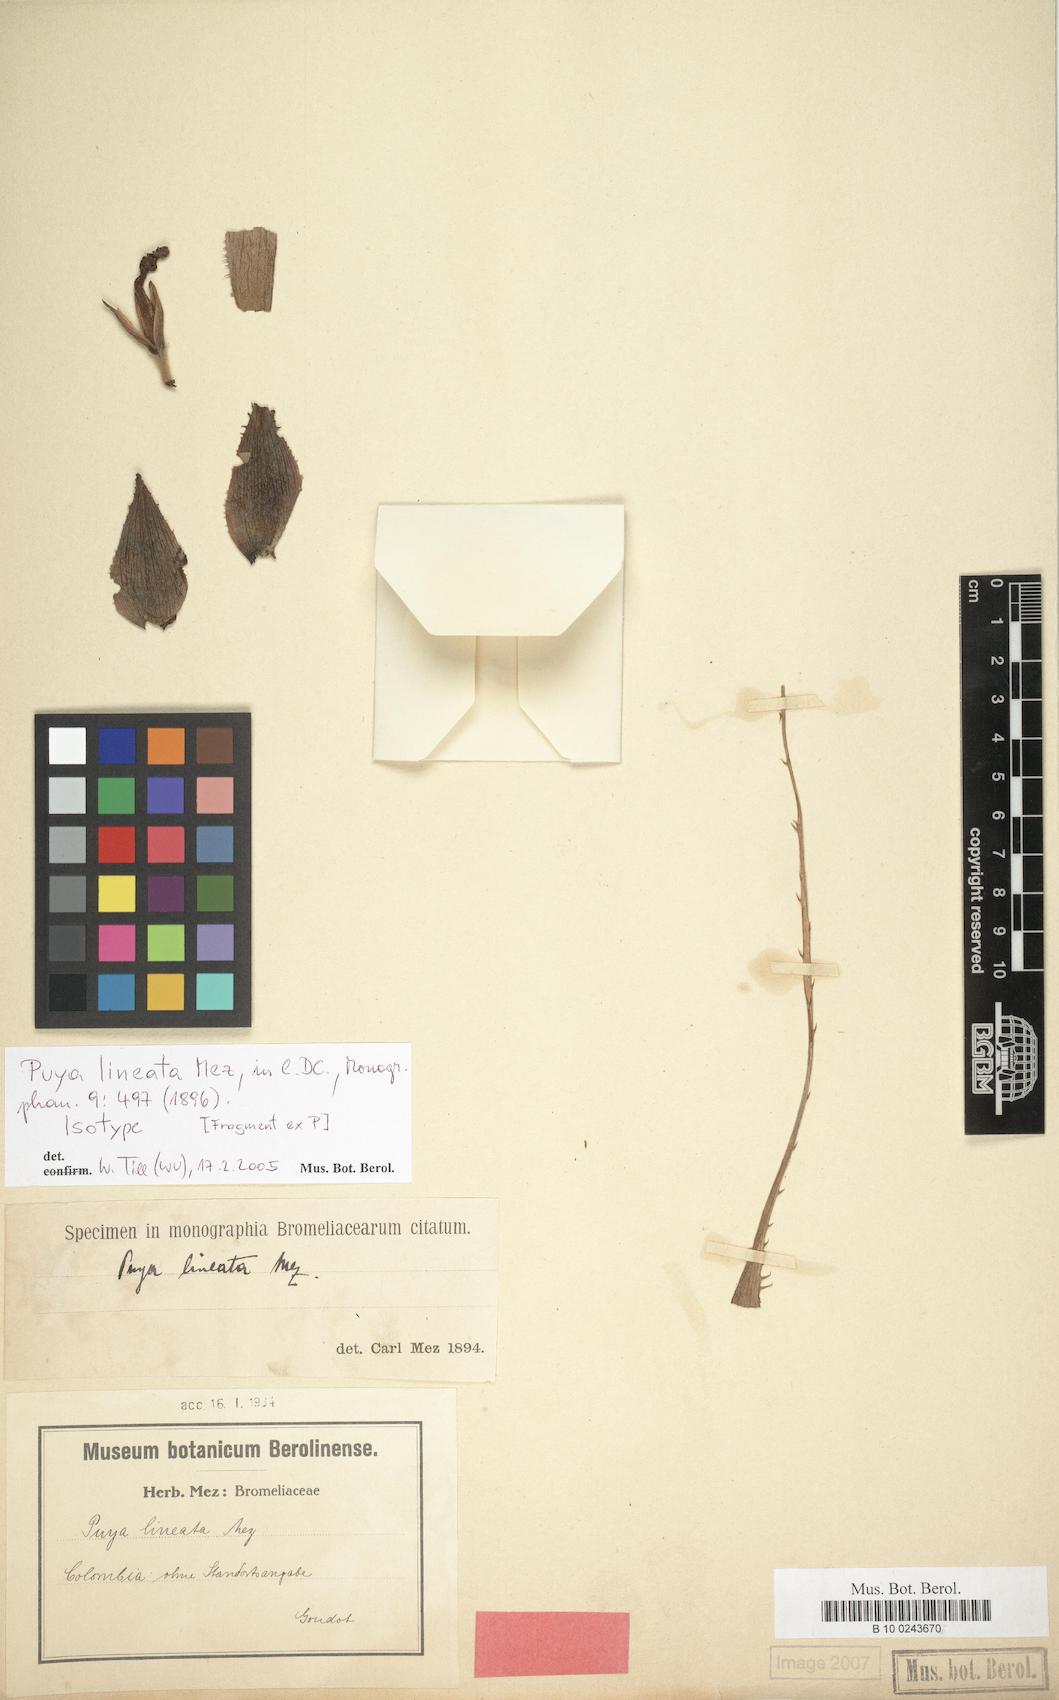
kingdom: Plantae
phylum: Tracheophyta
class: Liliopsida
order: Poales
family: Bromeliaceae
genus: Puya
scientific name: Puya lineata
